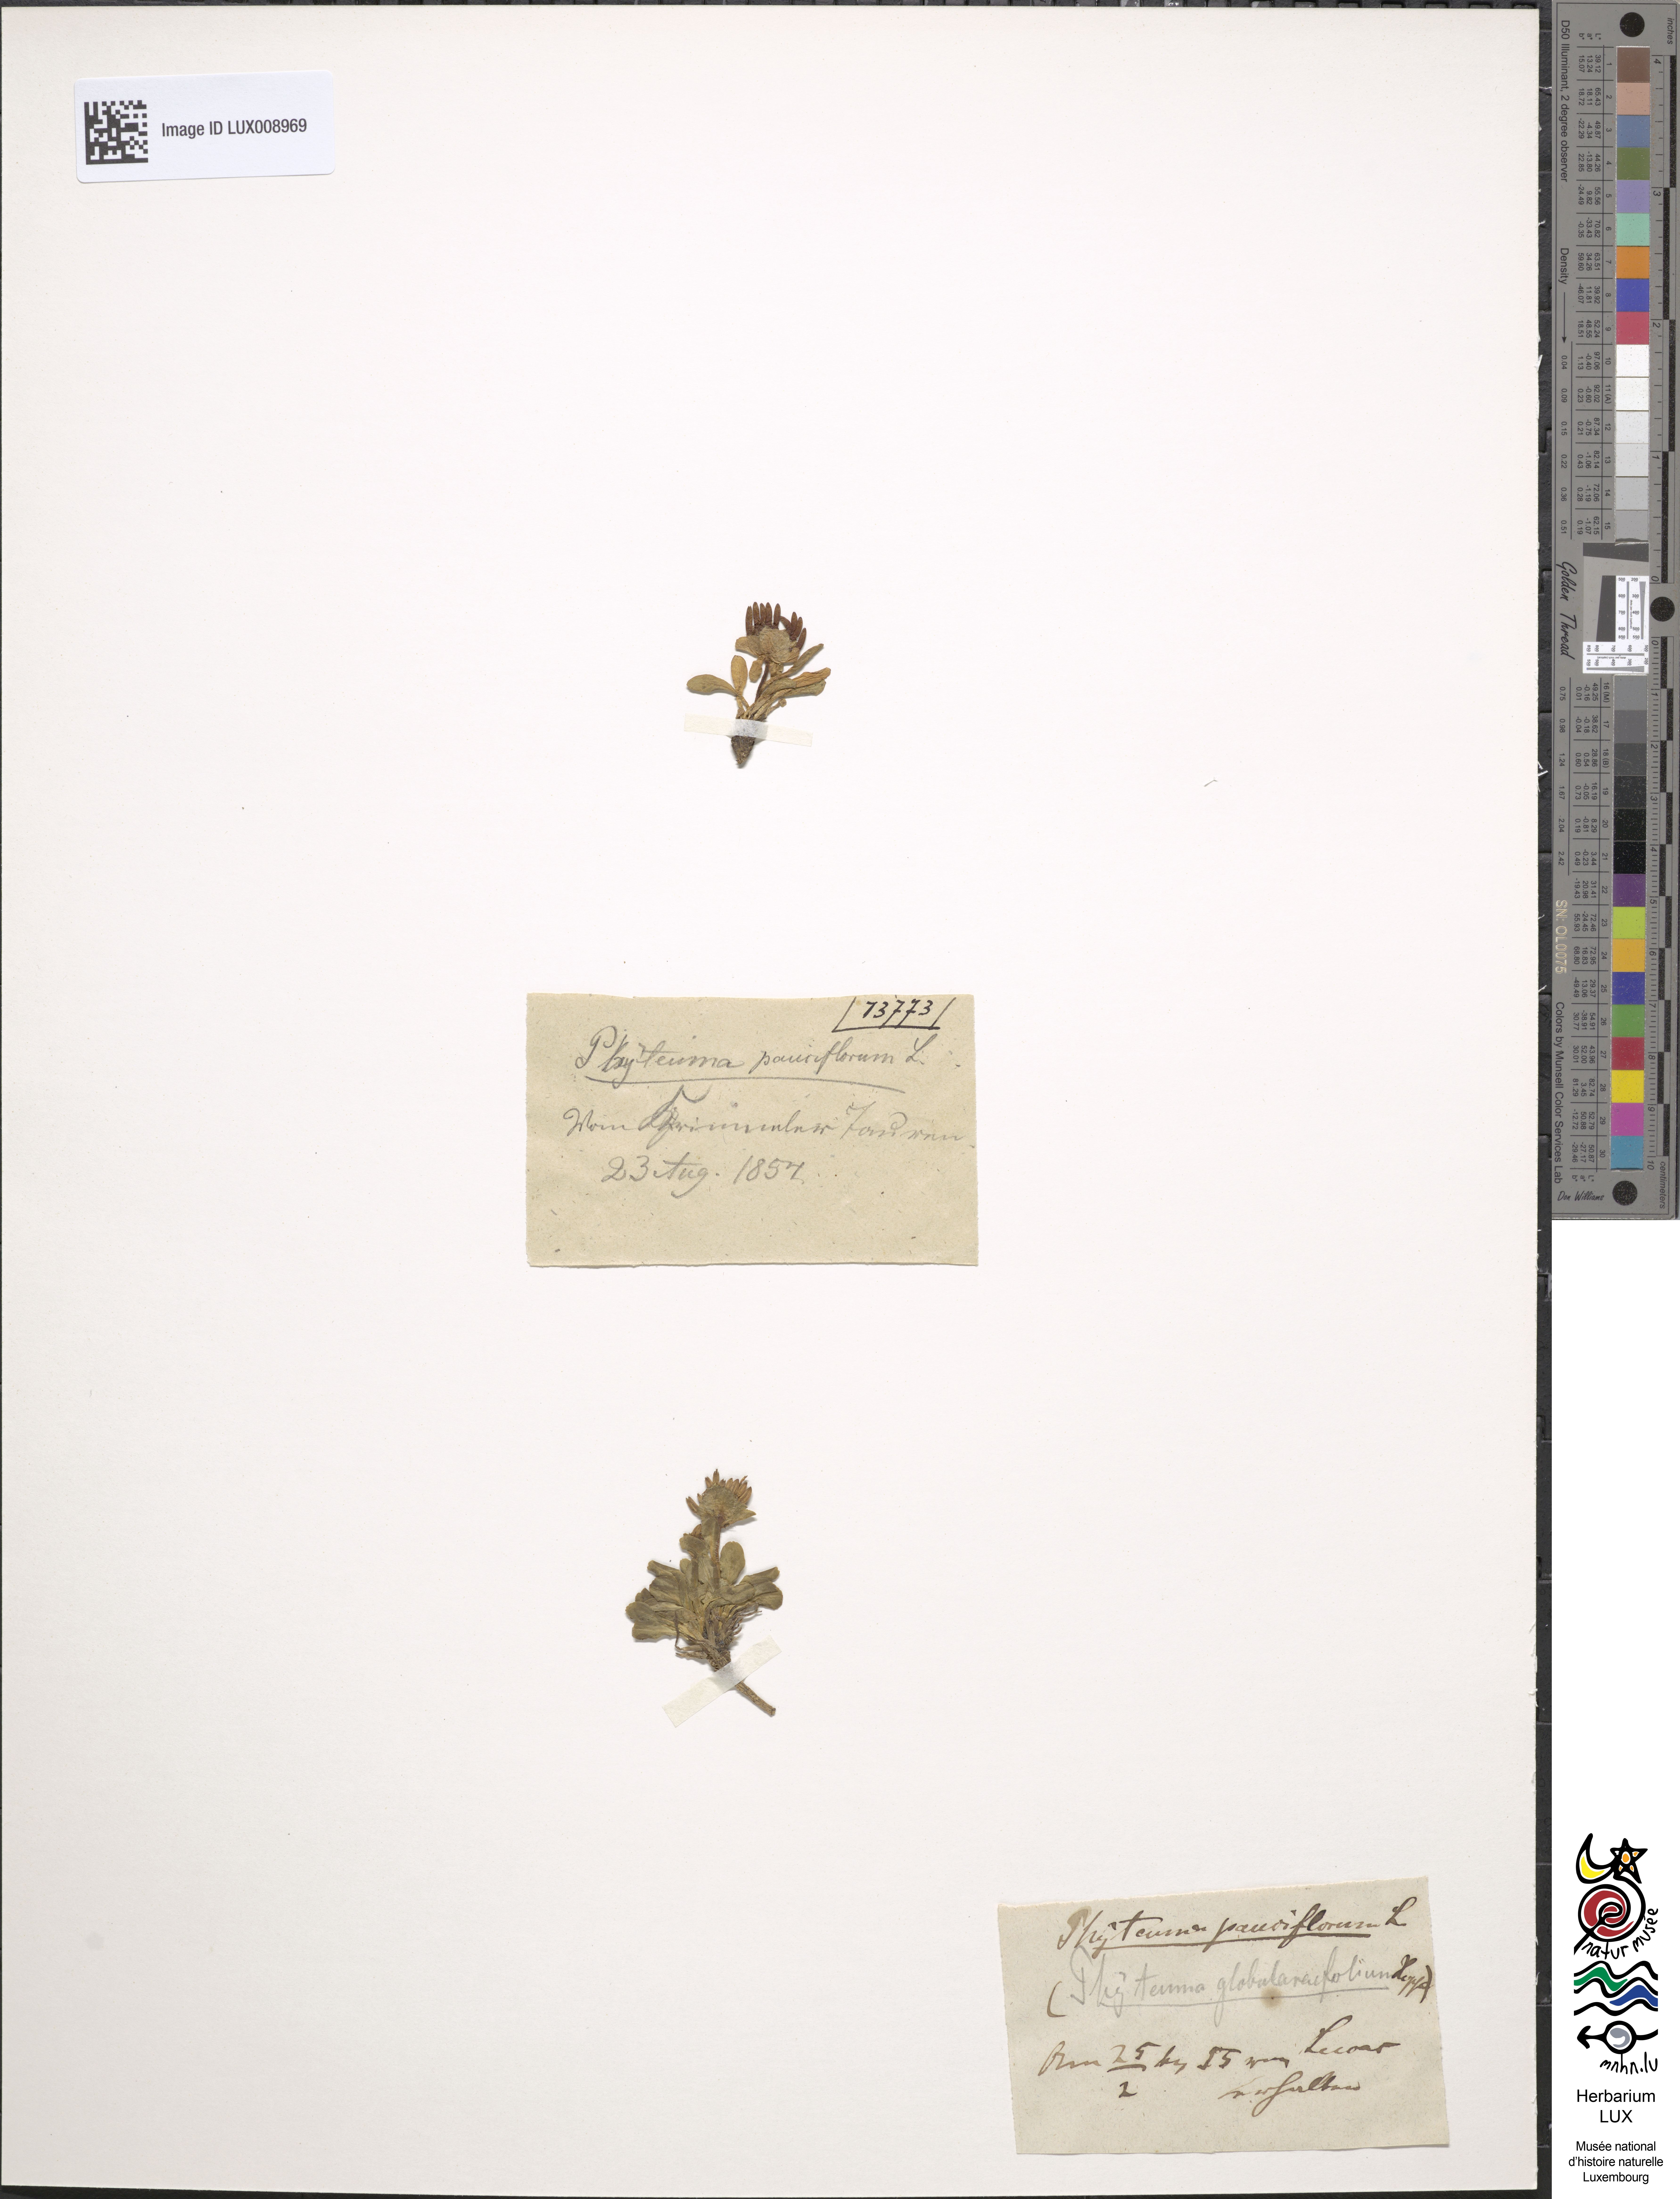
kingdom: Plantae
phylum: Tracheophyta
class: Magnoliopsida
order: Asterales
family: Campanulaceae
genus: Phyteuma
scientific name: Phyteuma globulariifolium
